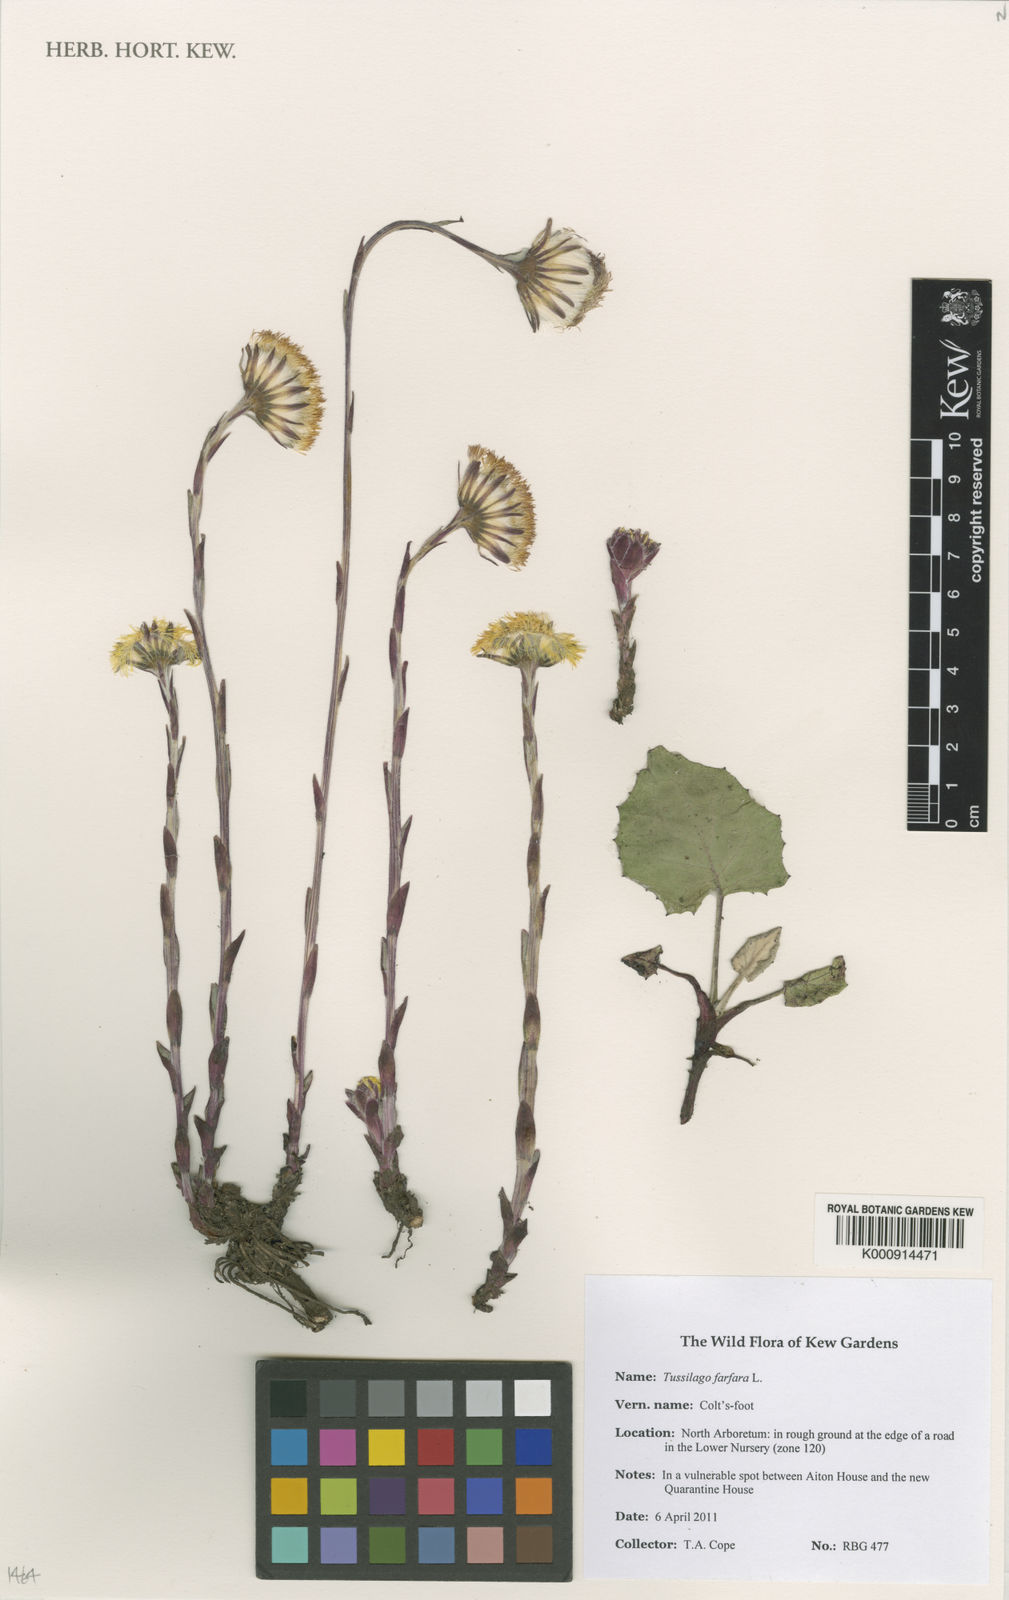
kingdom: Plantae
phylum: Tracheophyta
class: Magnoliopsida
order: Asterales
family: Asteraceae
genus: Tussilago
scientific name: Tussilago farfara
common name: Coltsfoot
